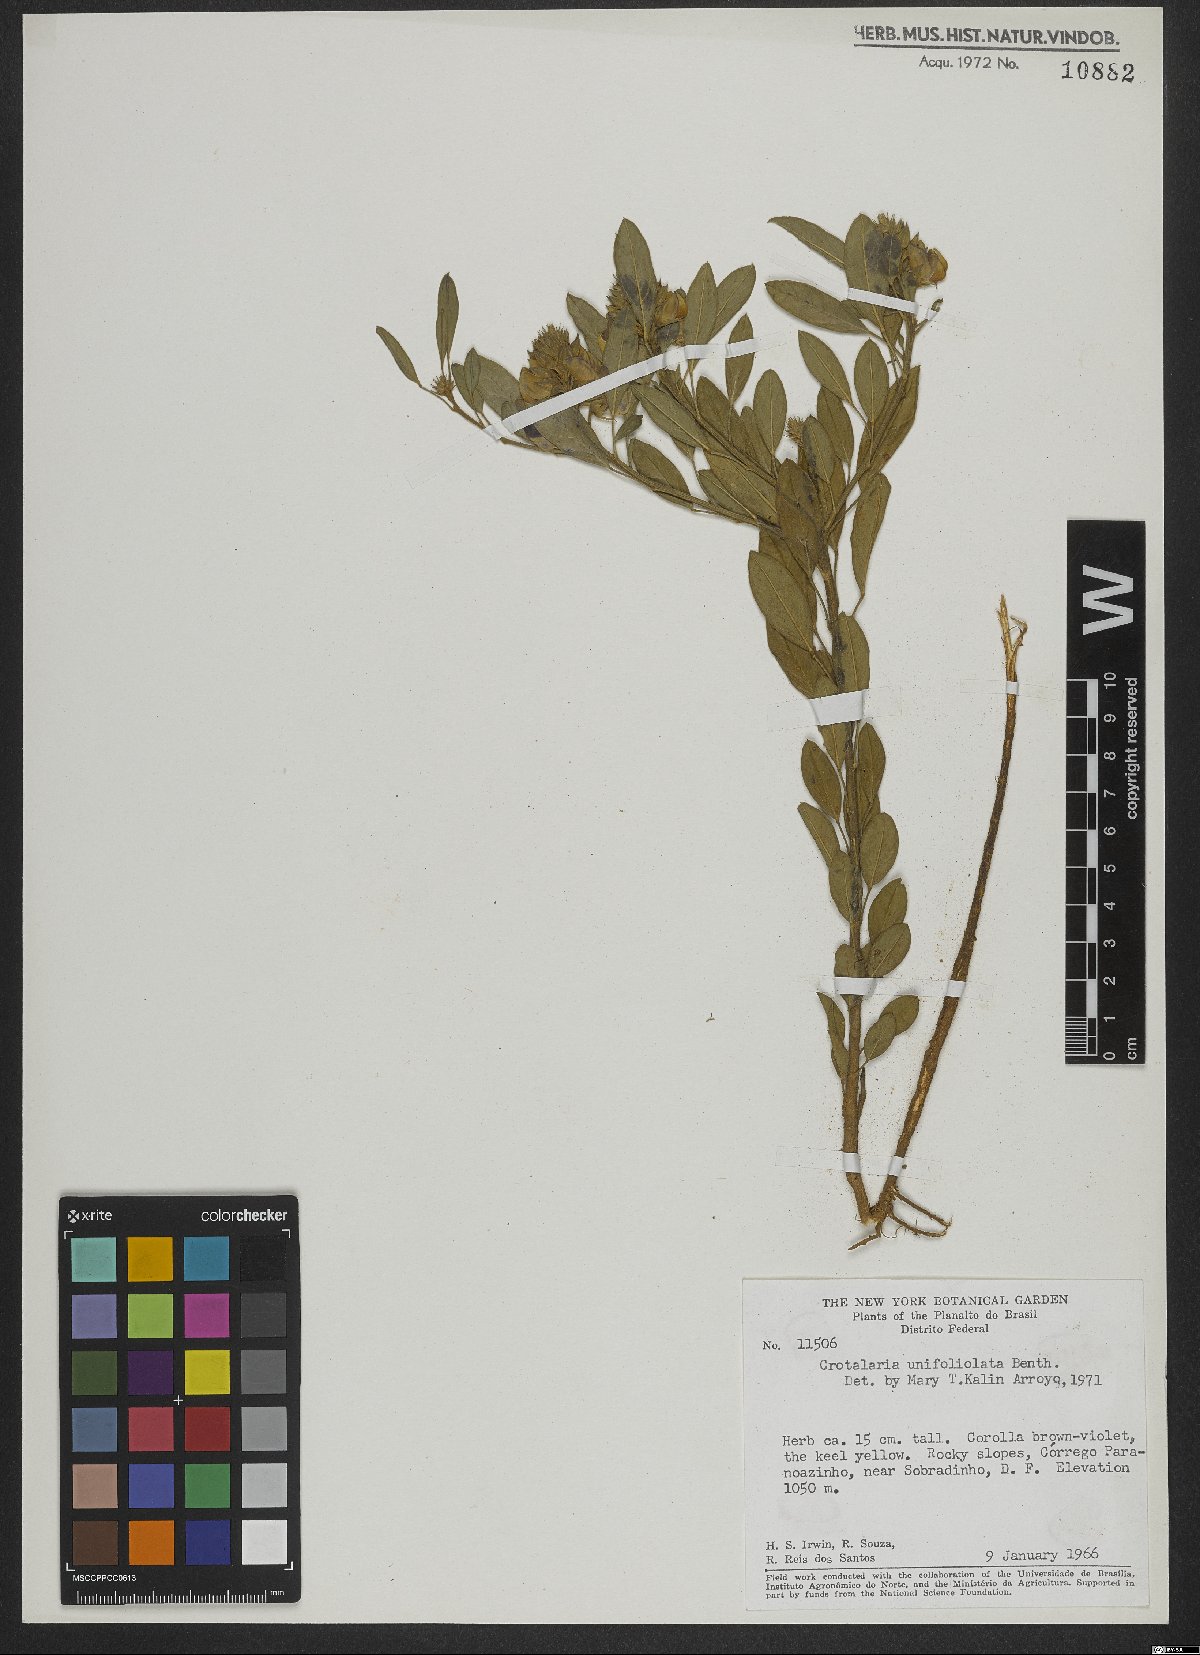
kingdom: Plantae
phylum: Tracheophyta
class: Magnoliopsida
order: Fabales
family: Fabaceae
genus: Crotalaria
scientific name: Crotalaria unifoliolata
